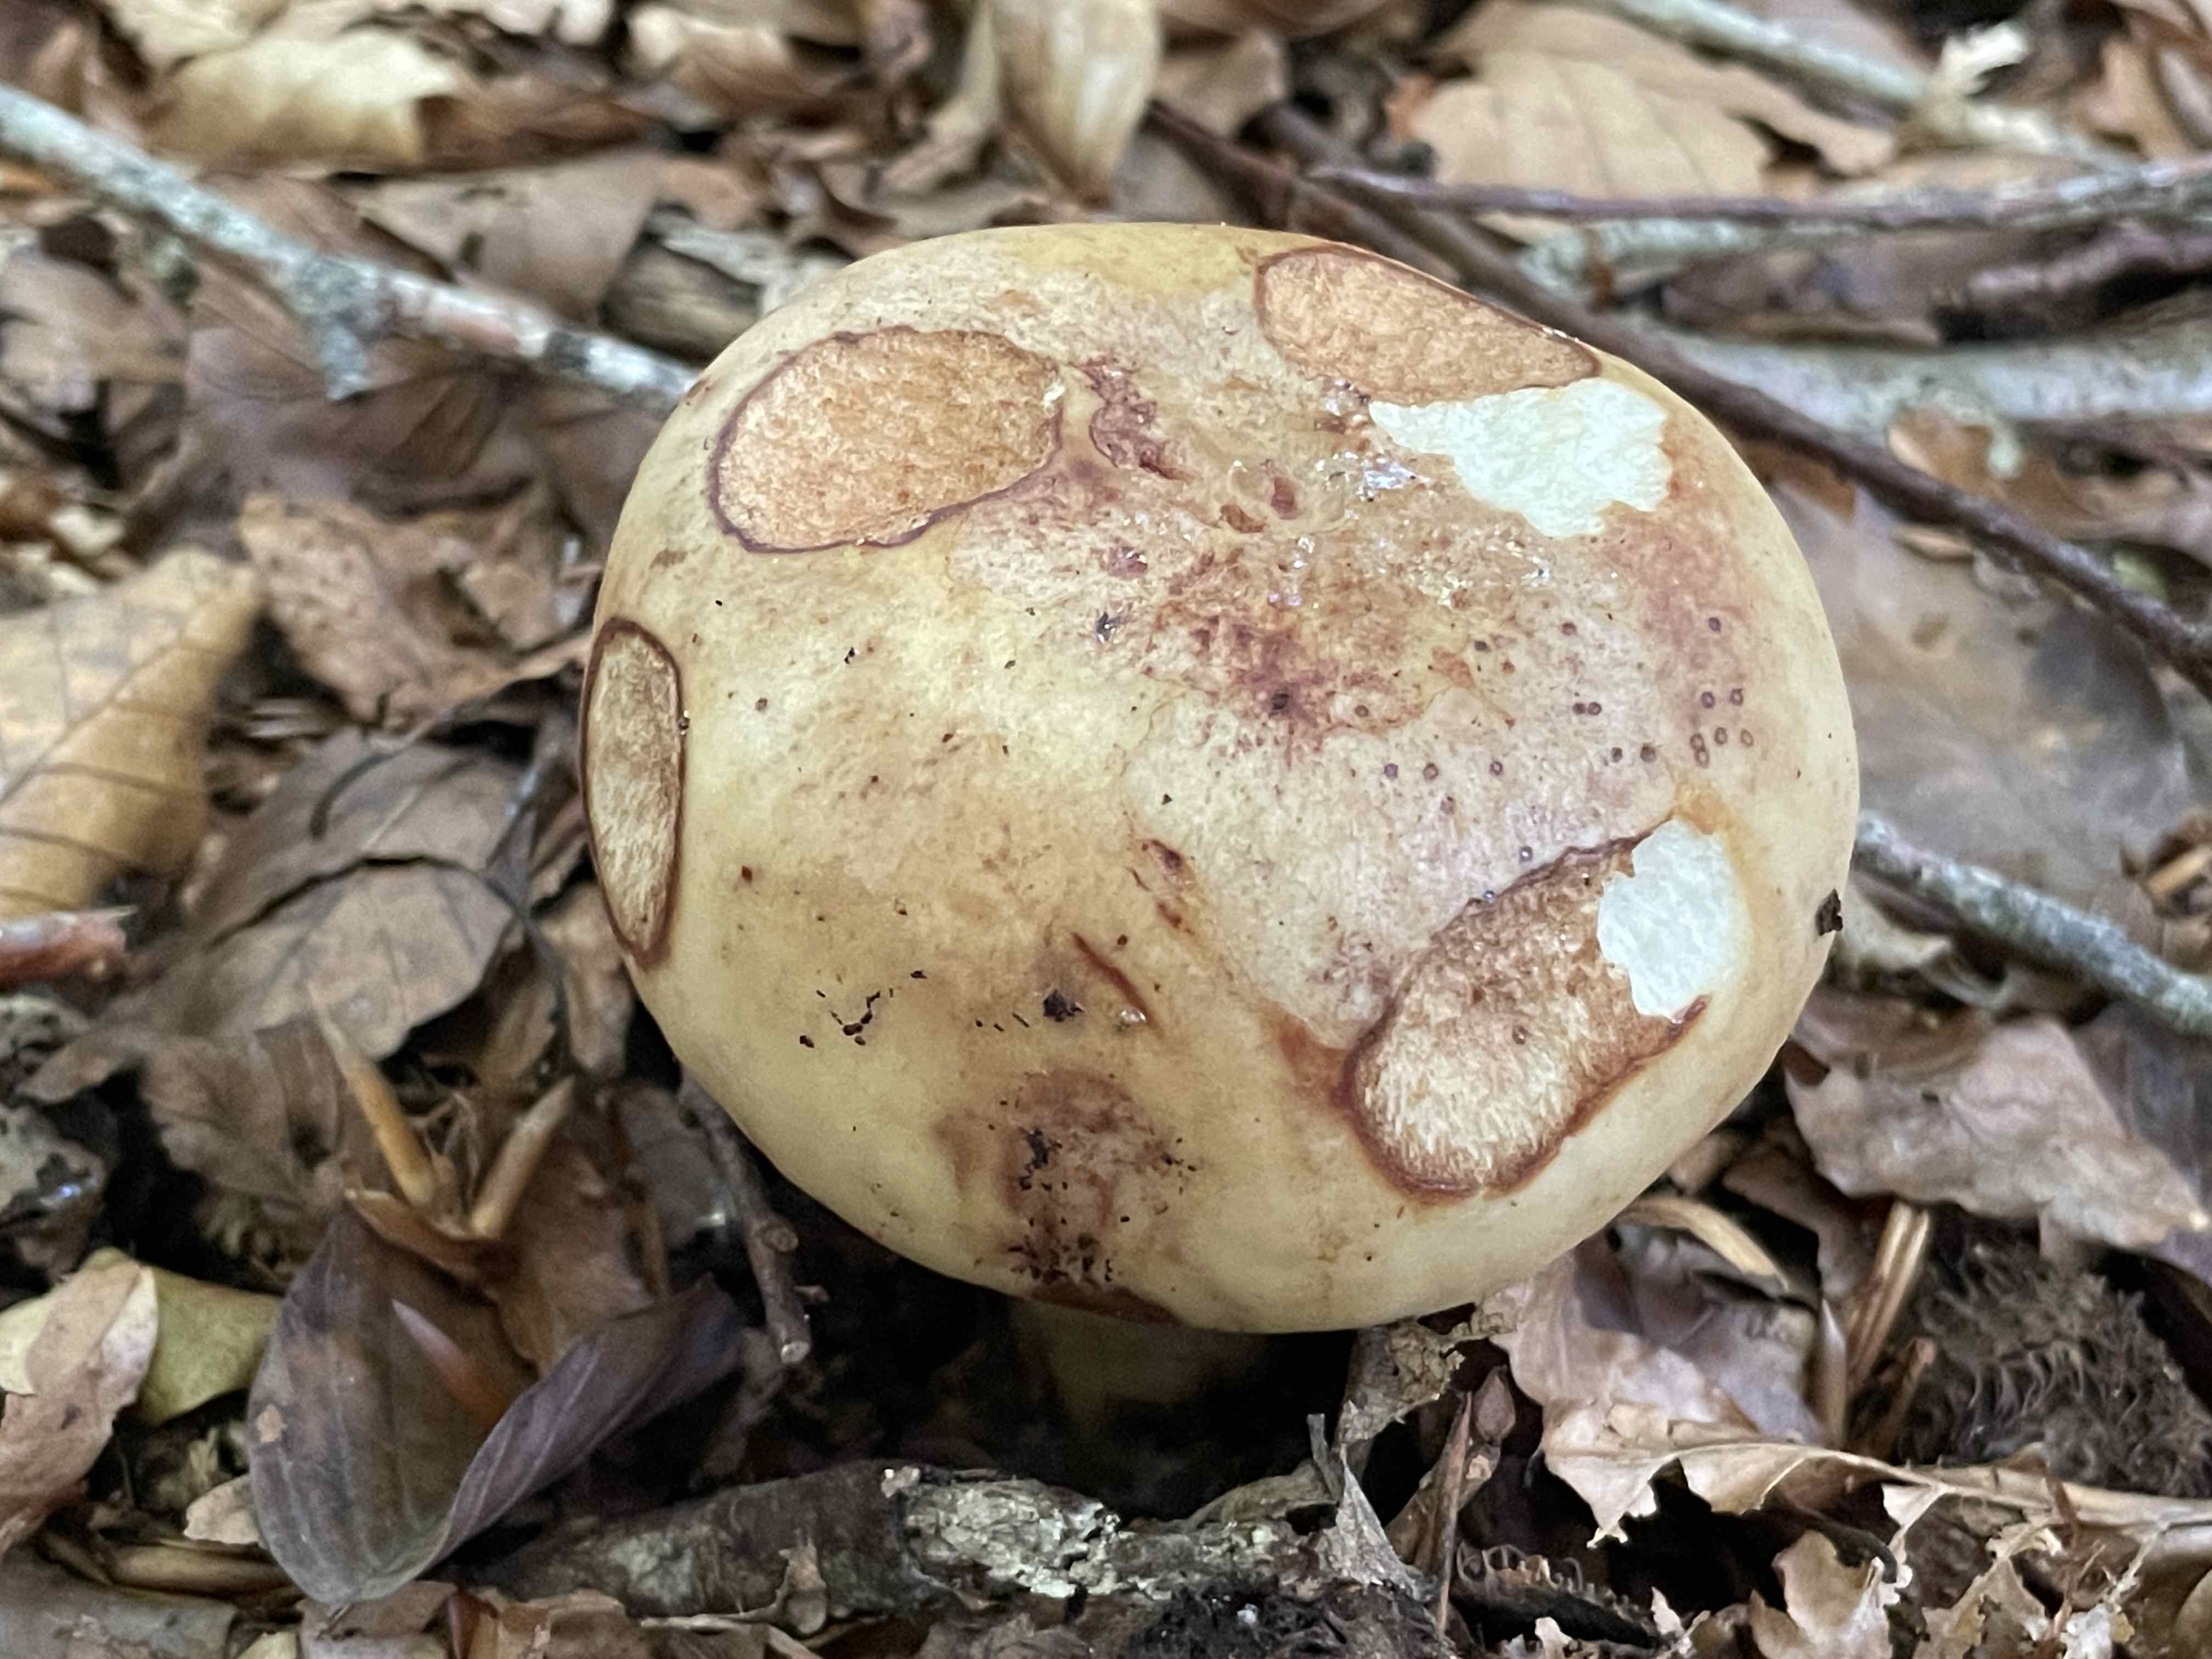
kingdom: Fungi
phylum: Basidiomycota
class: Agaricomycetes
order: Russulales
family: Russulaceae
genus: Russula
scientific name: Russula grata
